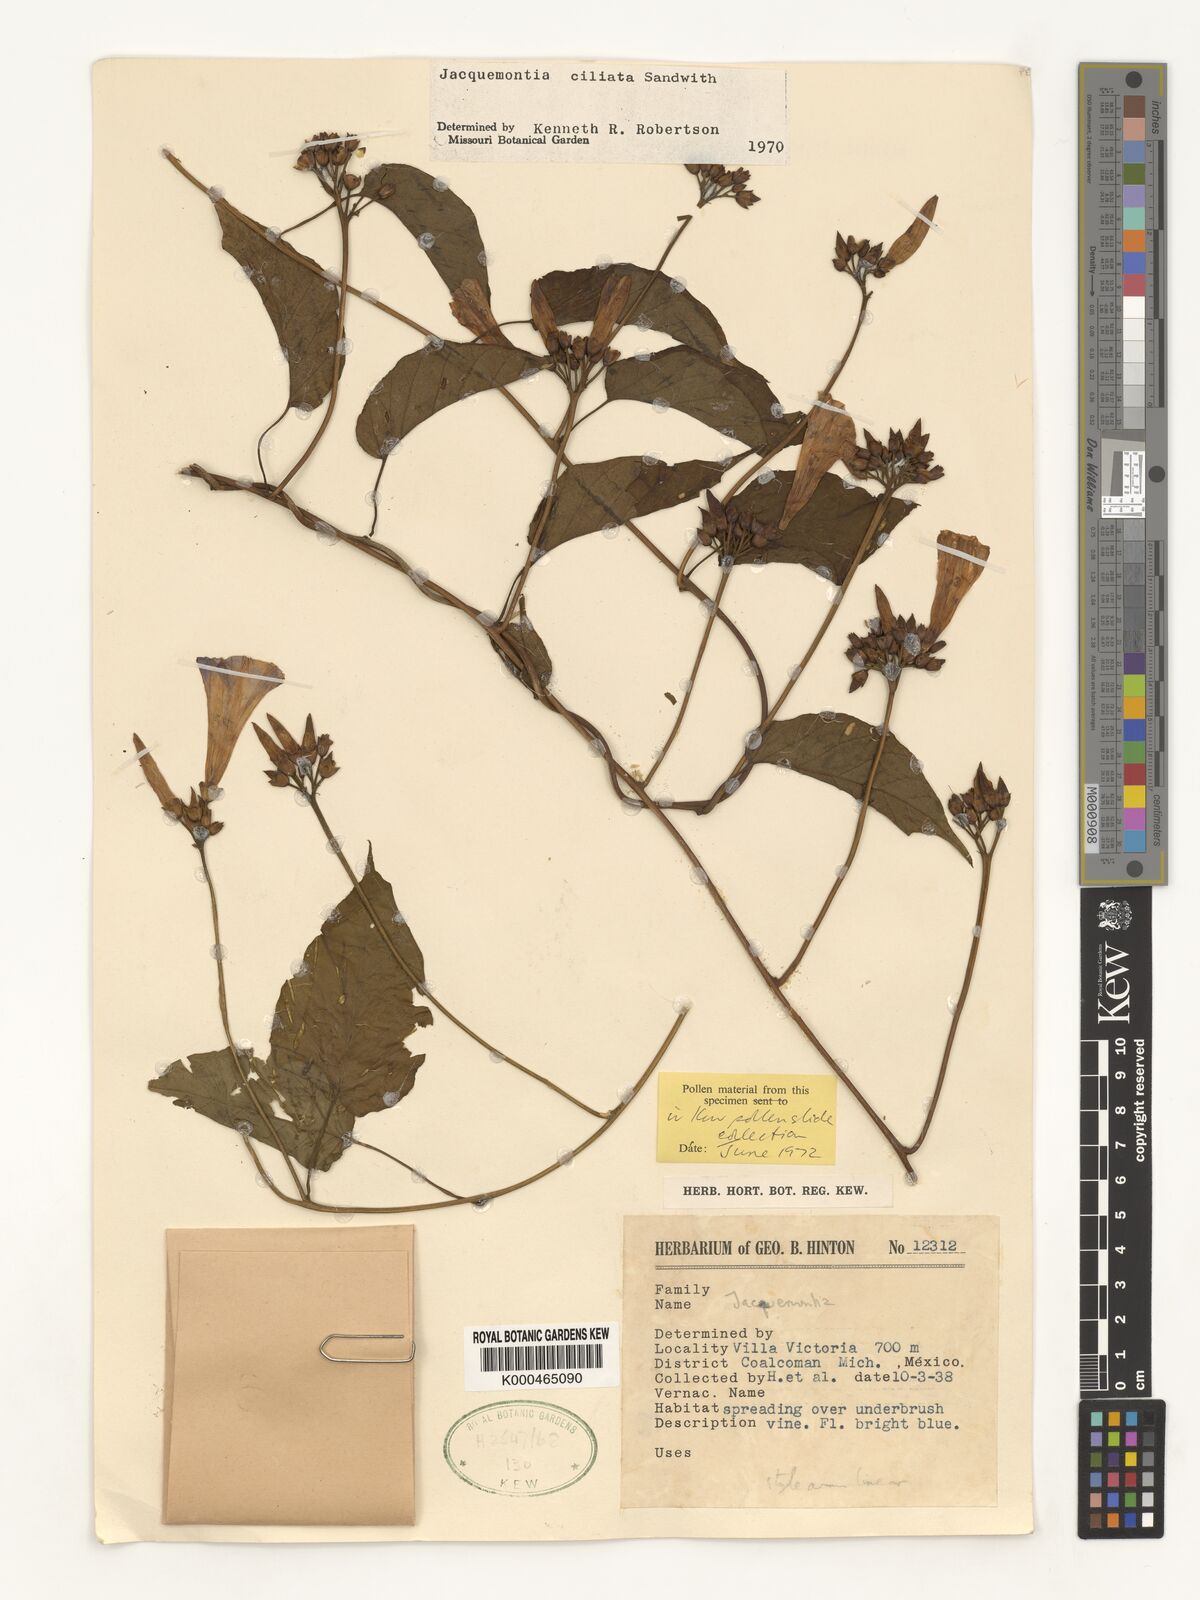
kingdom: Plantae
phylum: Tracheophyta
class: Magnoliopsida
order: Solanales
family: Convolvulaceae
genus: Jacquemontia
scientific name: Jacquemontia gabrielii
